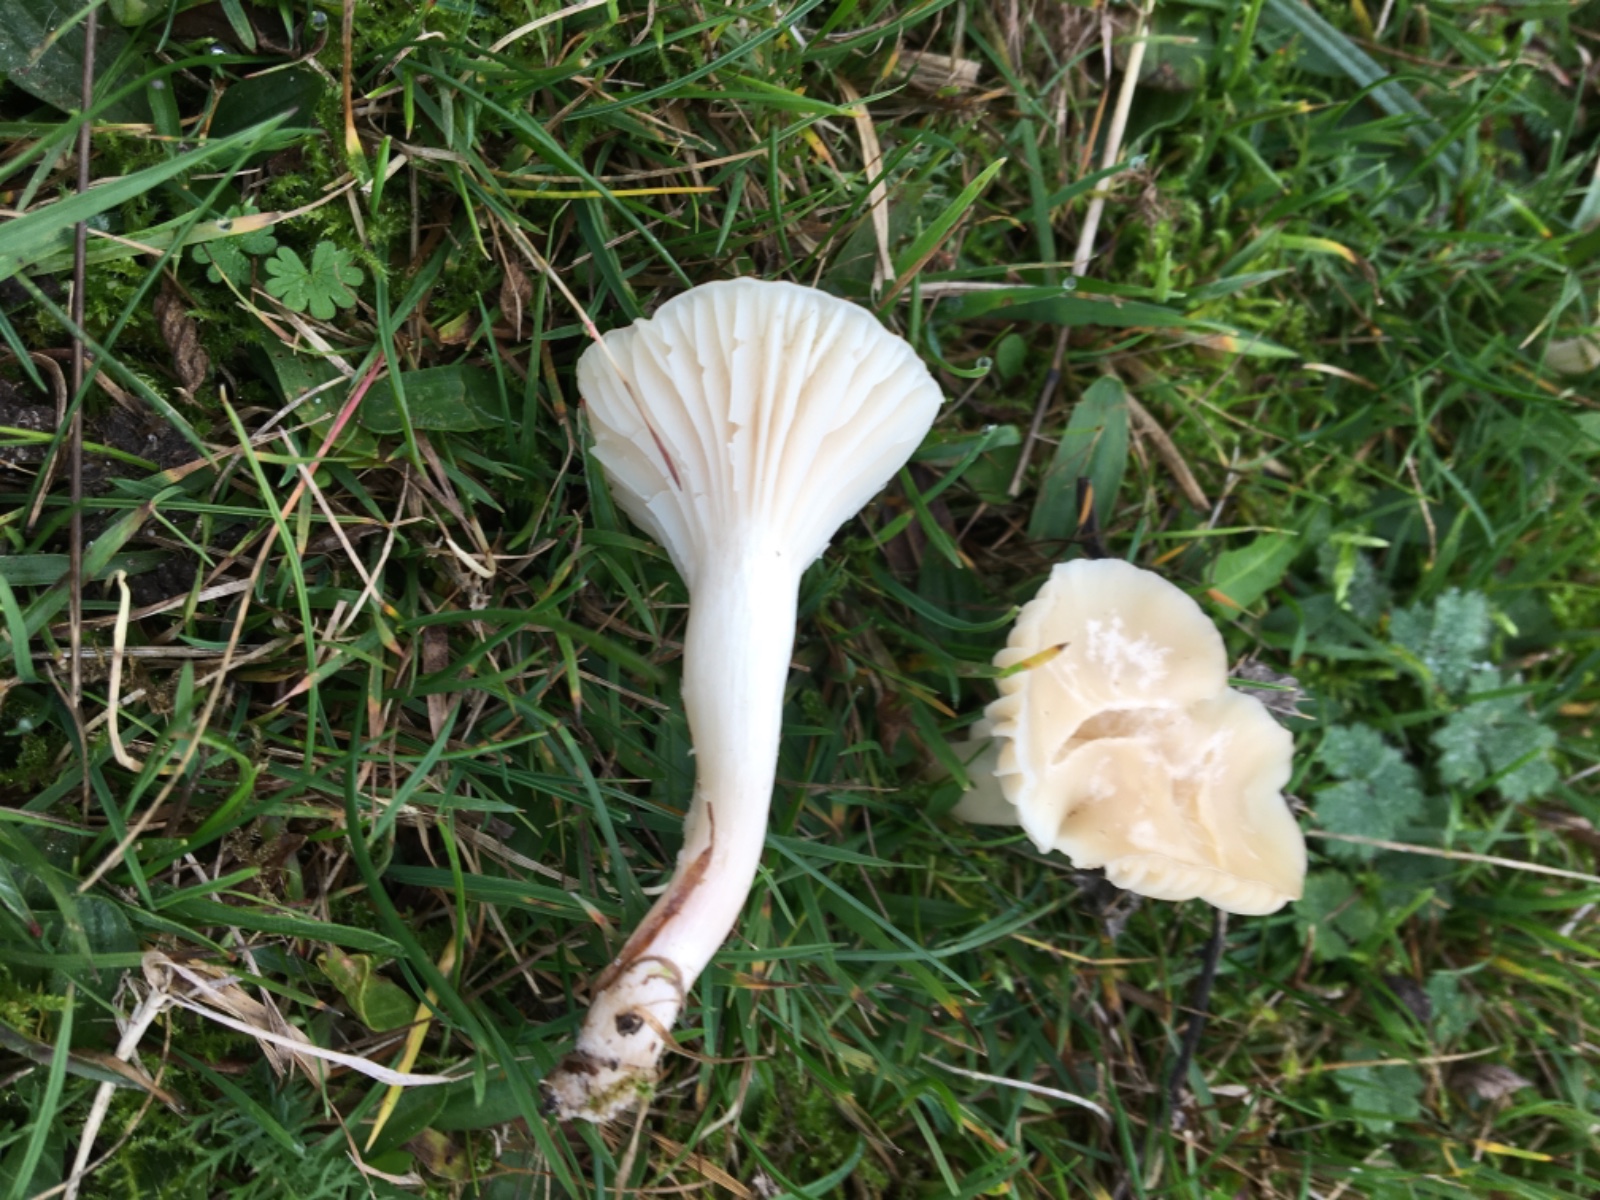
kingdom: Fungi
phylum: Basidiomycota
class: Agaricomycetes
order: Agaricales
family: Hygrophoraceae
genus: Cuphophyllus
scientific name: Cuphophyllus virgineus
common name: snehvid vokshat
